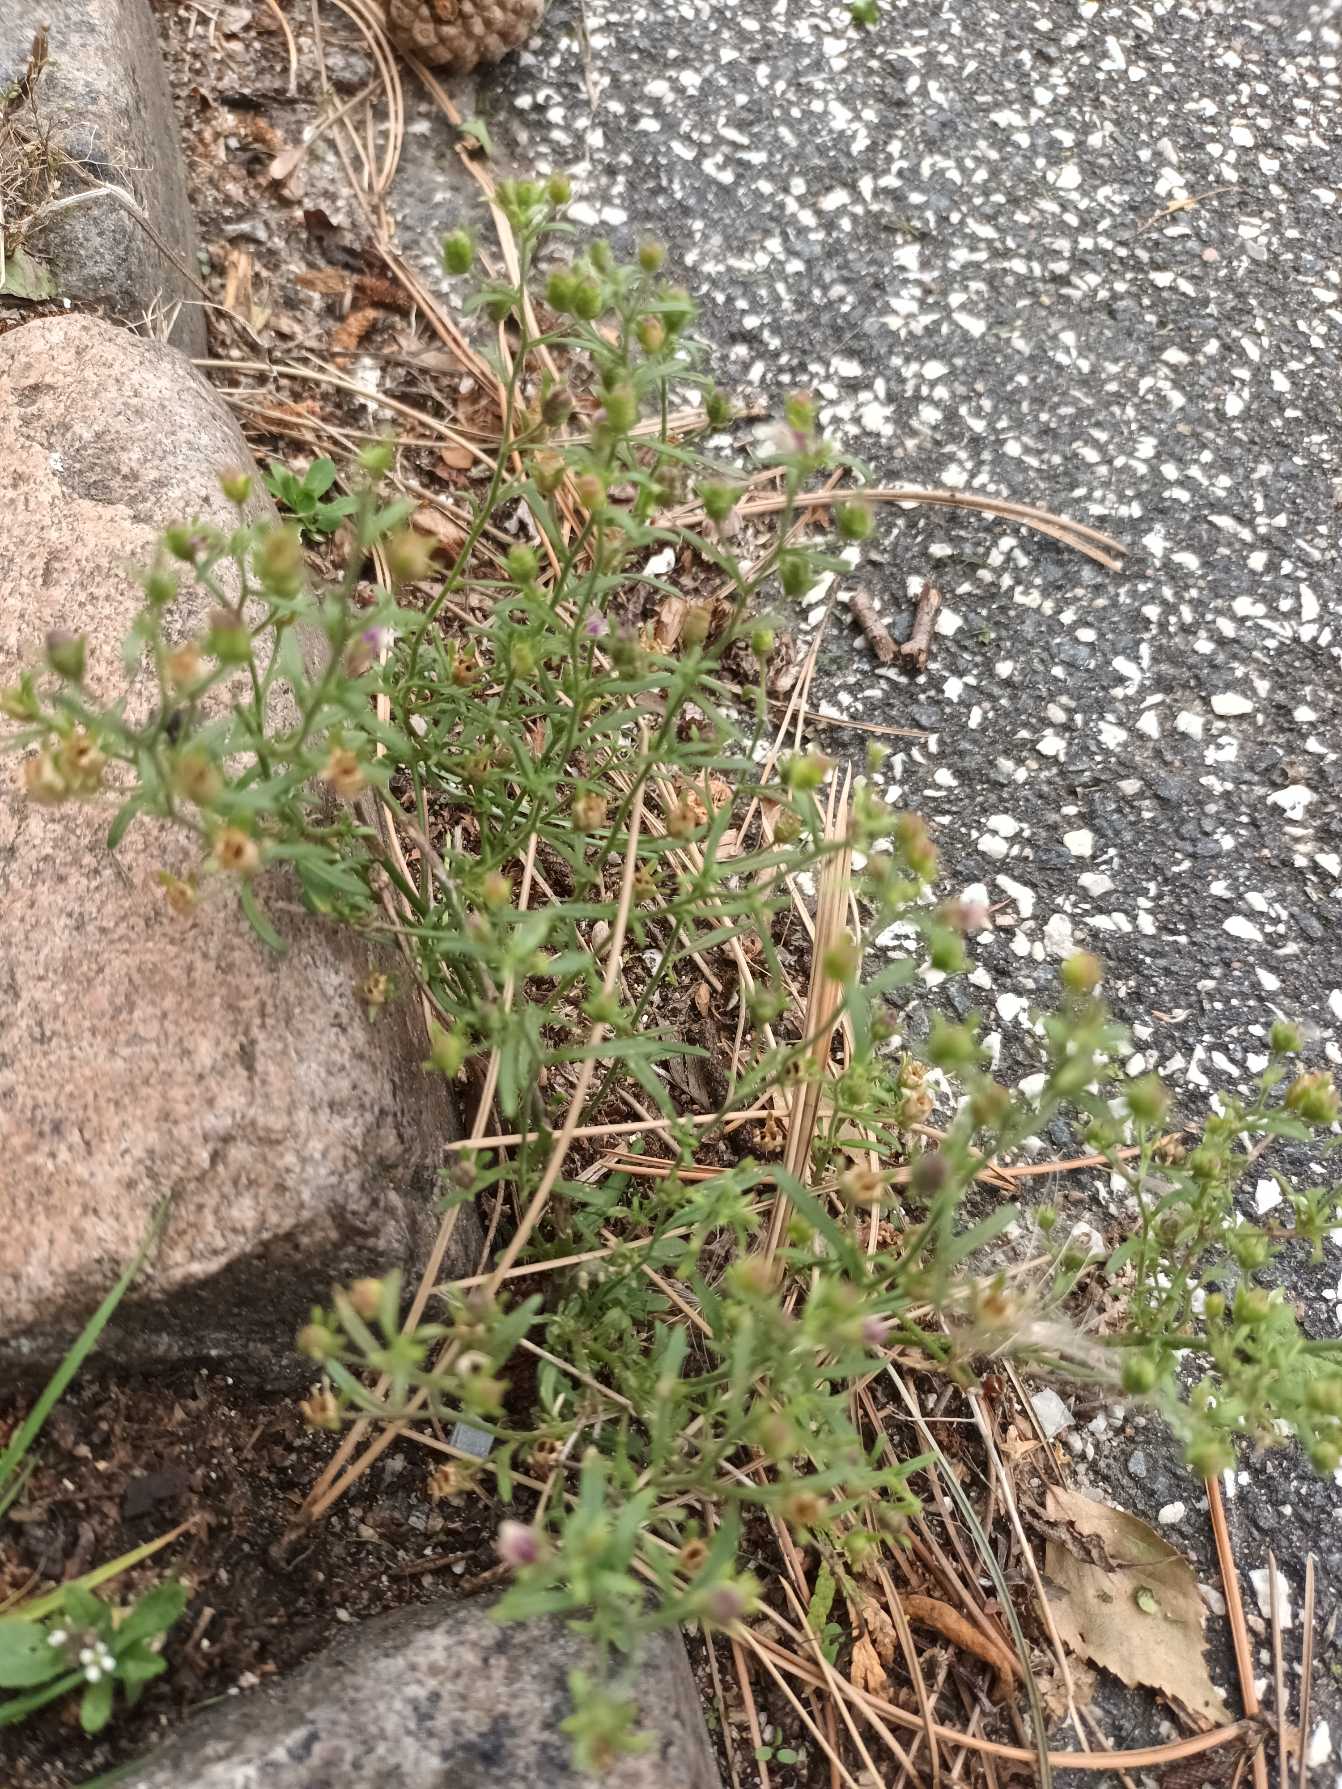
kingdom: Plantae
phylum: Tracheophyta
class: Magnoliopsida
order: Lamiales
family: Plantaginaceae
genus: Chaenorhinum
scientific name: Chaenorhinum minus
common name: Liden torskemund
